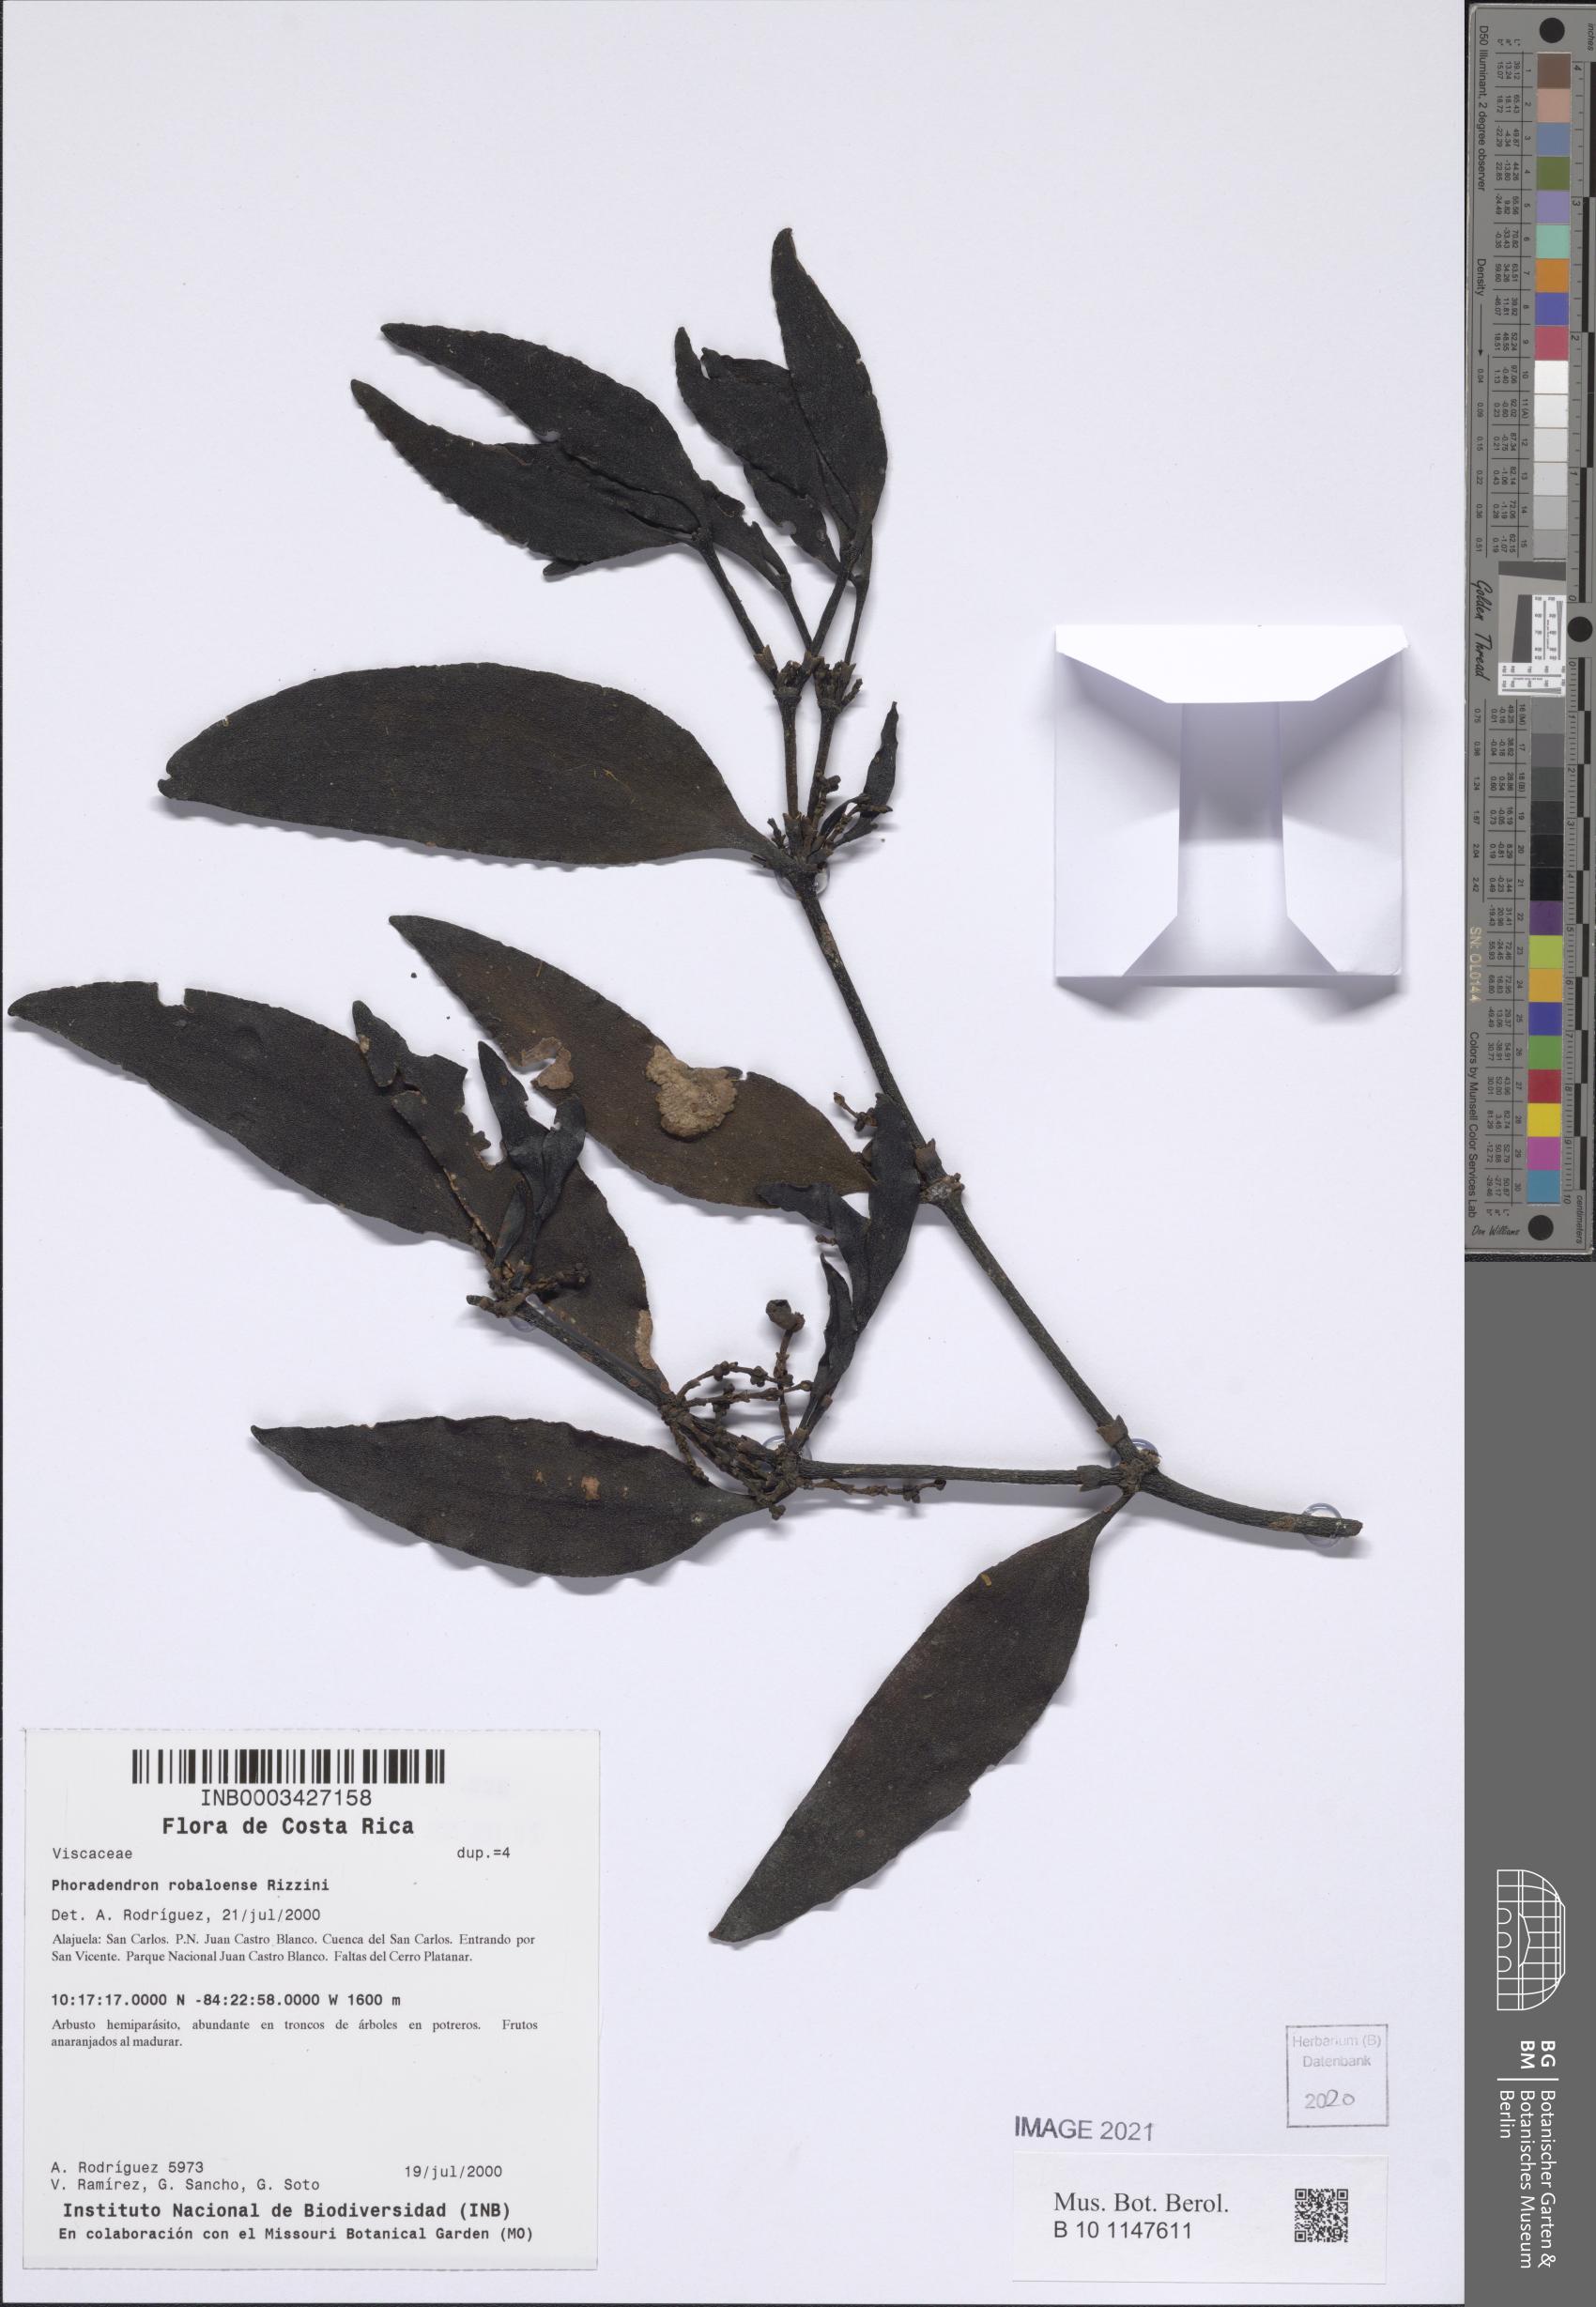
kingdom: Plantae
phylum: Tracheophyta
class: Magnoliopsida
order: Santalales
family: Viscaceae
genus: Phoradendron
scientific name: Phoradendron robaloense
